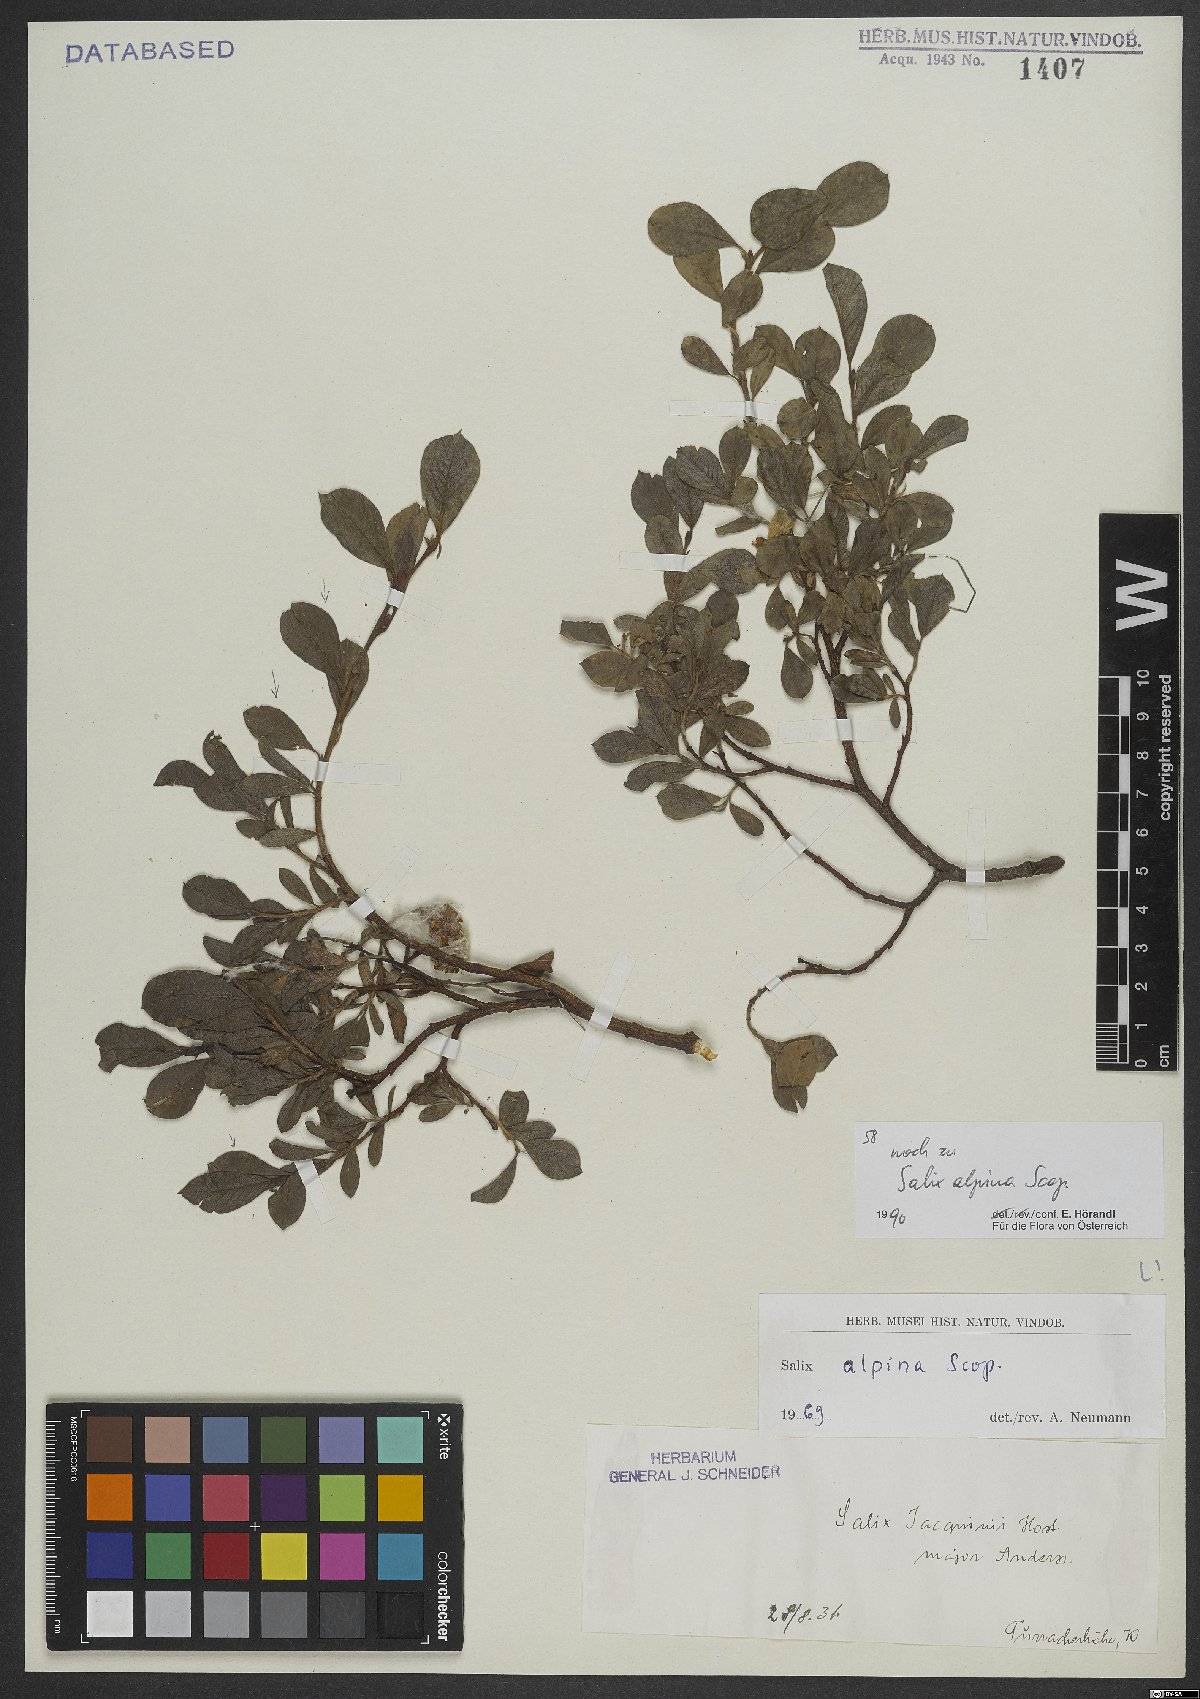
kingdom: Plantae
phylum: Tracheophyta
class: Magnoliopsida
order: Malpighiales
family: Salicaceae
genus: Salix
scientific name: Salix alpina
